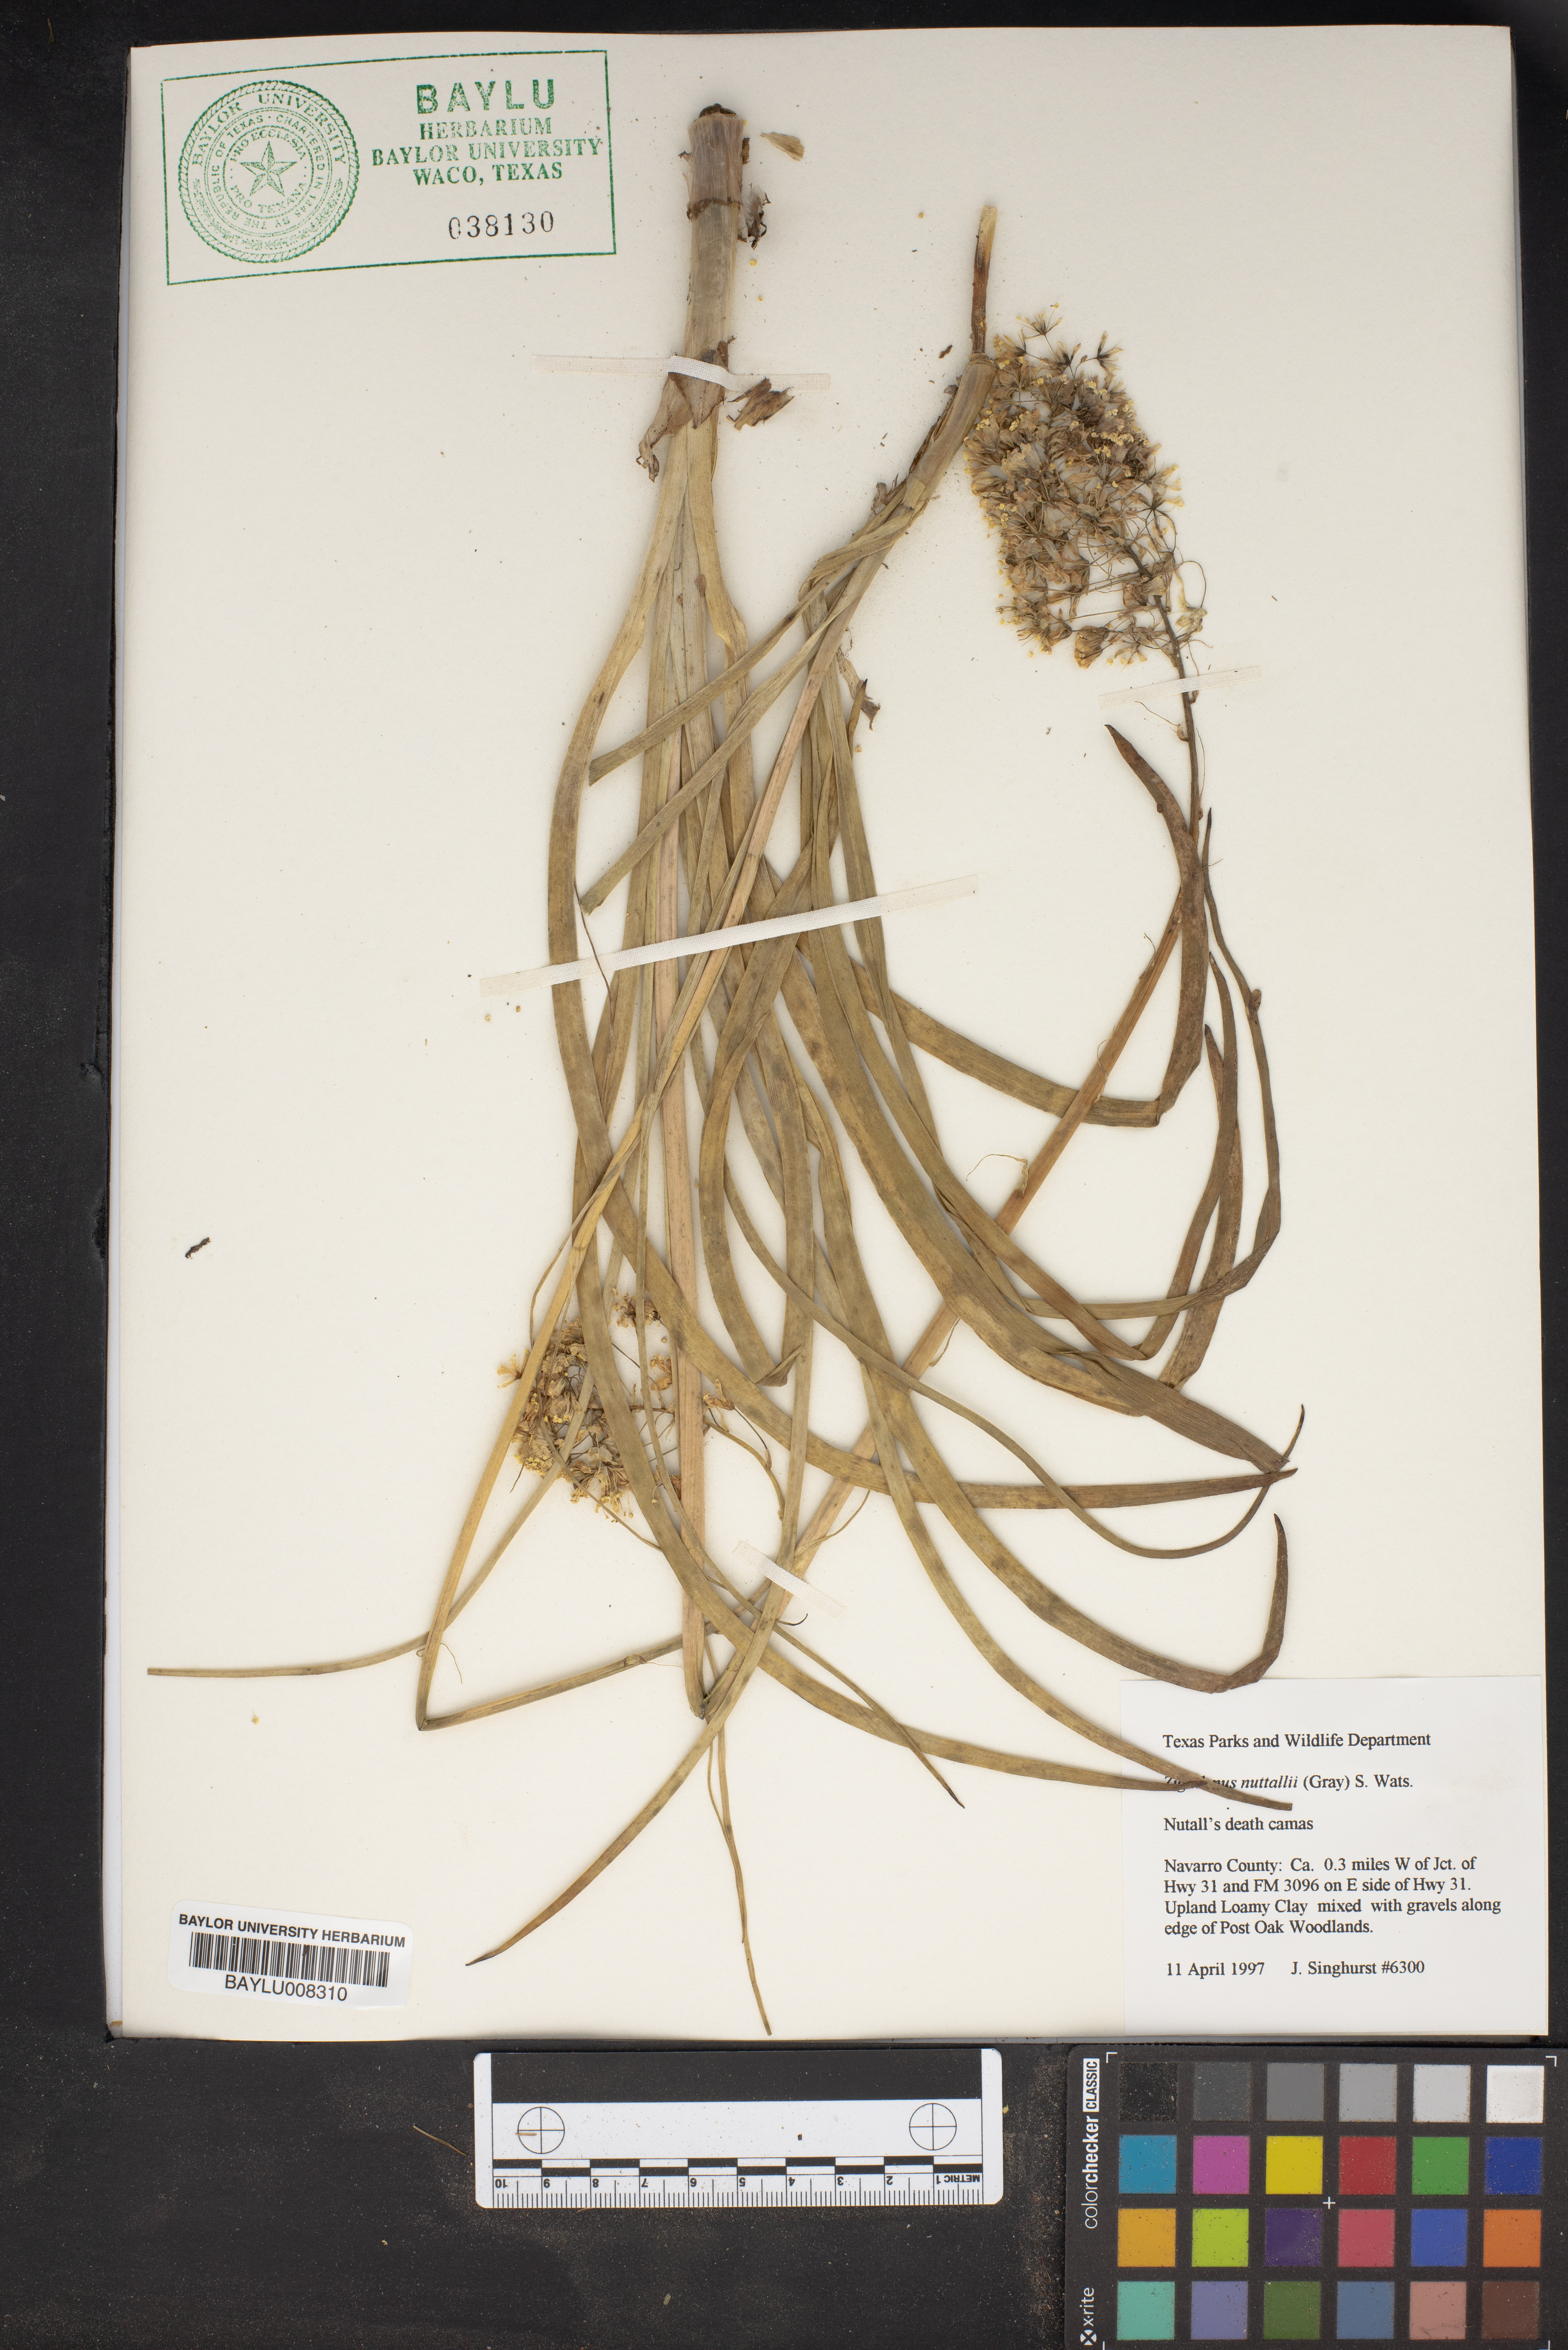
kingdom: Plantae
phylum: Tracheophyta
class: Liliopsida
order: Liliales
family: Melanthiaceae
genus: Toxicoscordion
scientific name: Toxicoscordion nuttallii
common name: Poison sego
